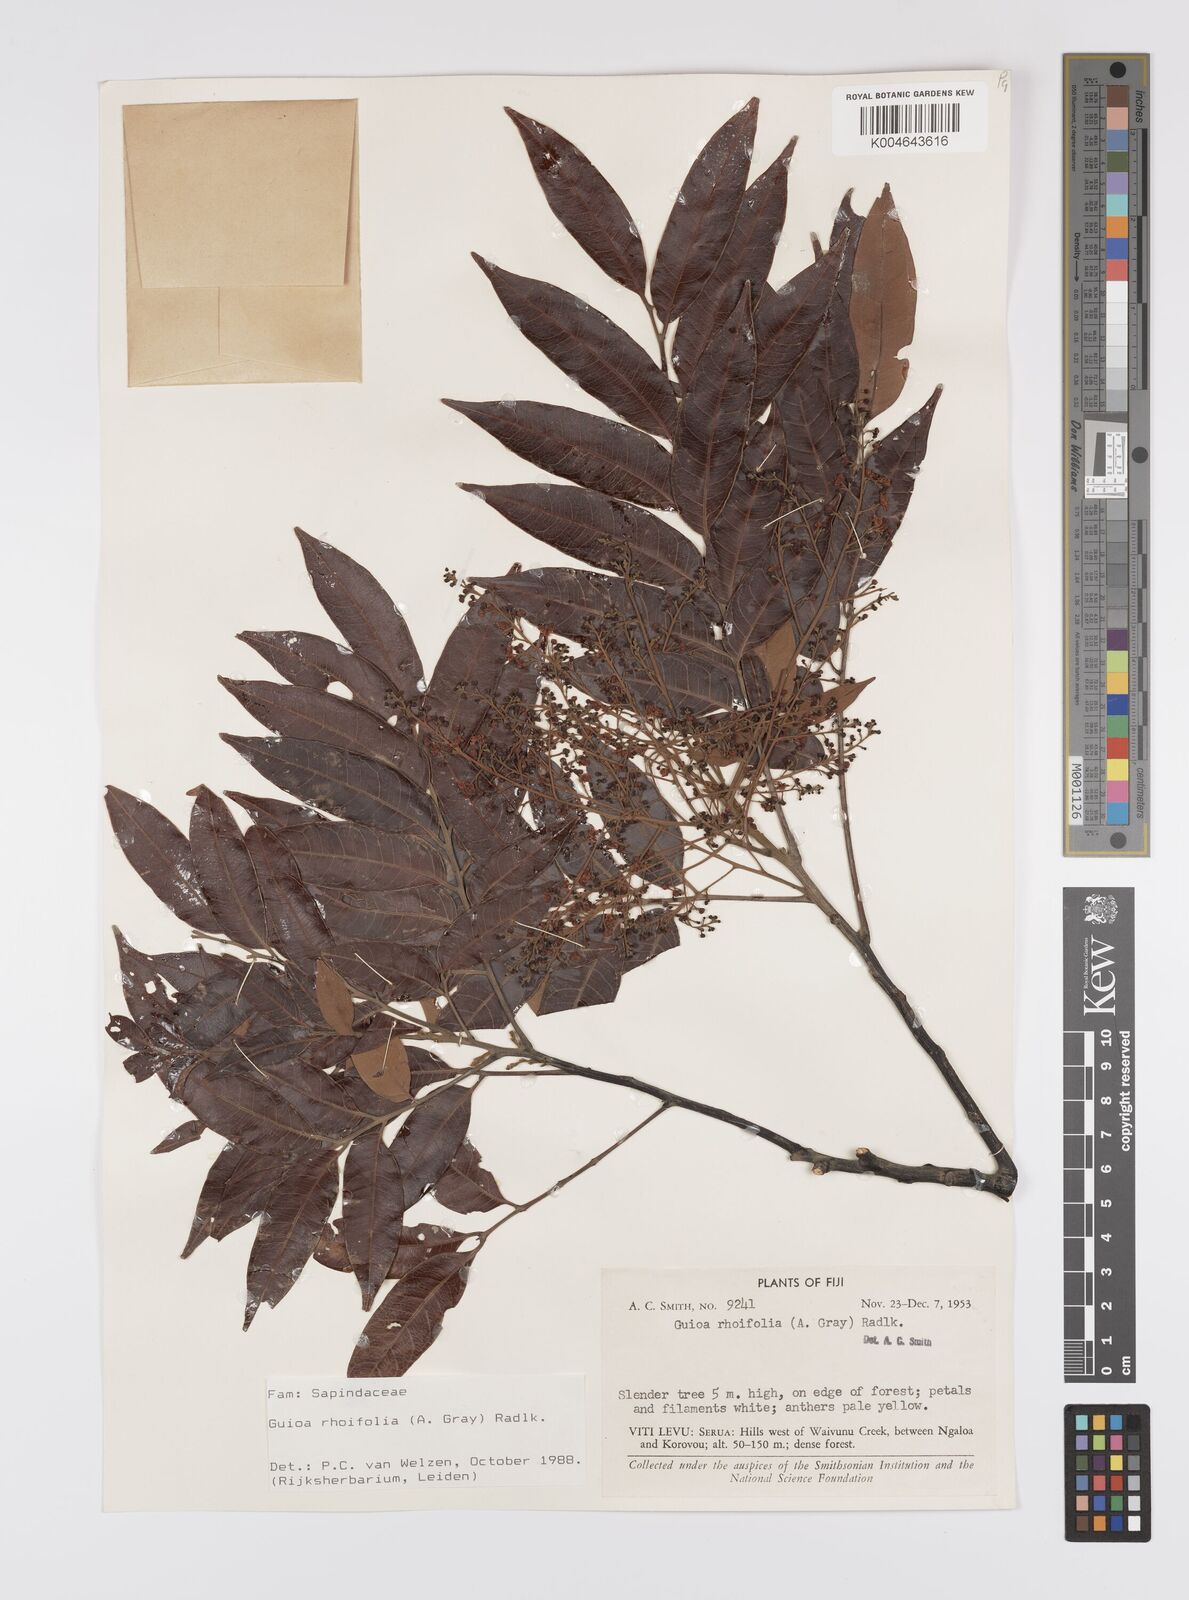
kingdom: Plantae
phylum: Tracheophyta
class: Magnoliopsida
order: Sapindales
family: Sapindaceae
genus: Guioa
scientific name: Guioa rhoifolia
